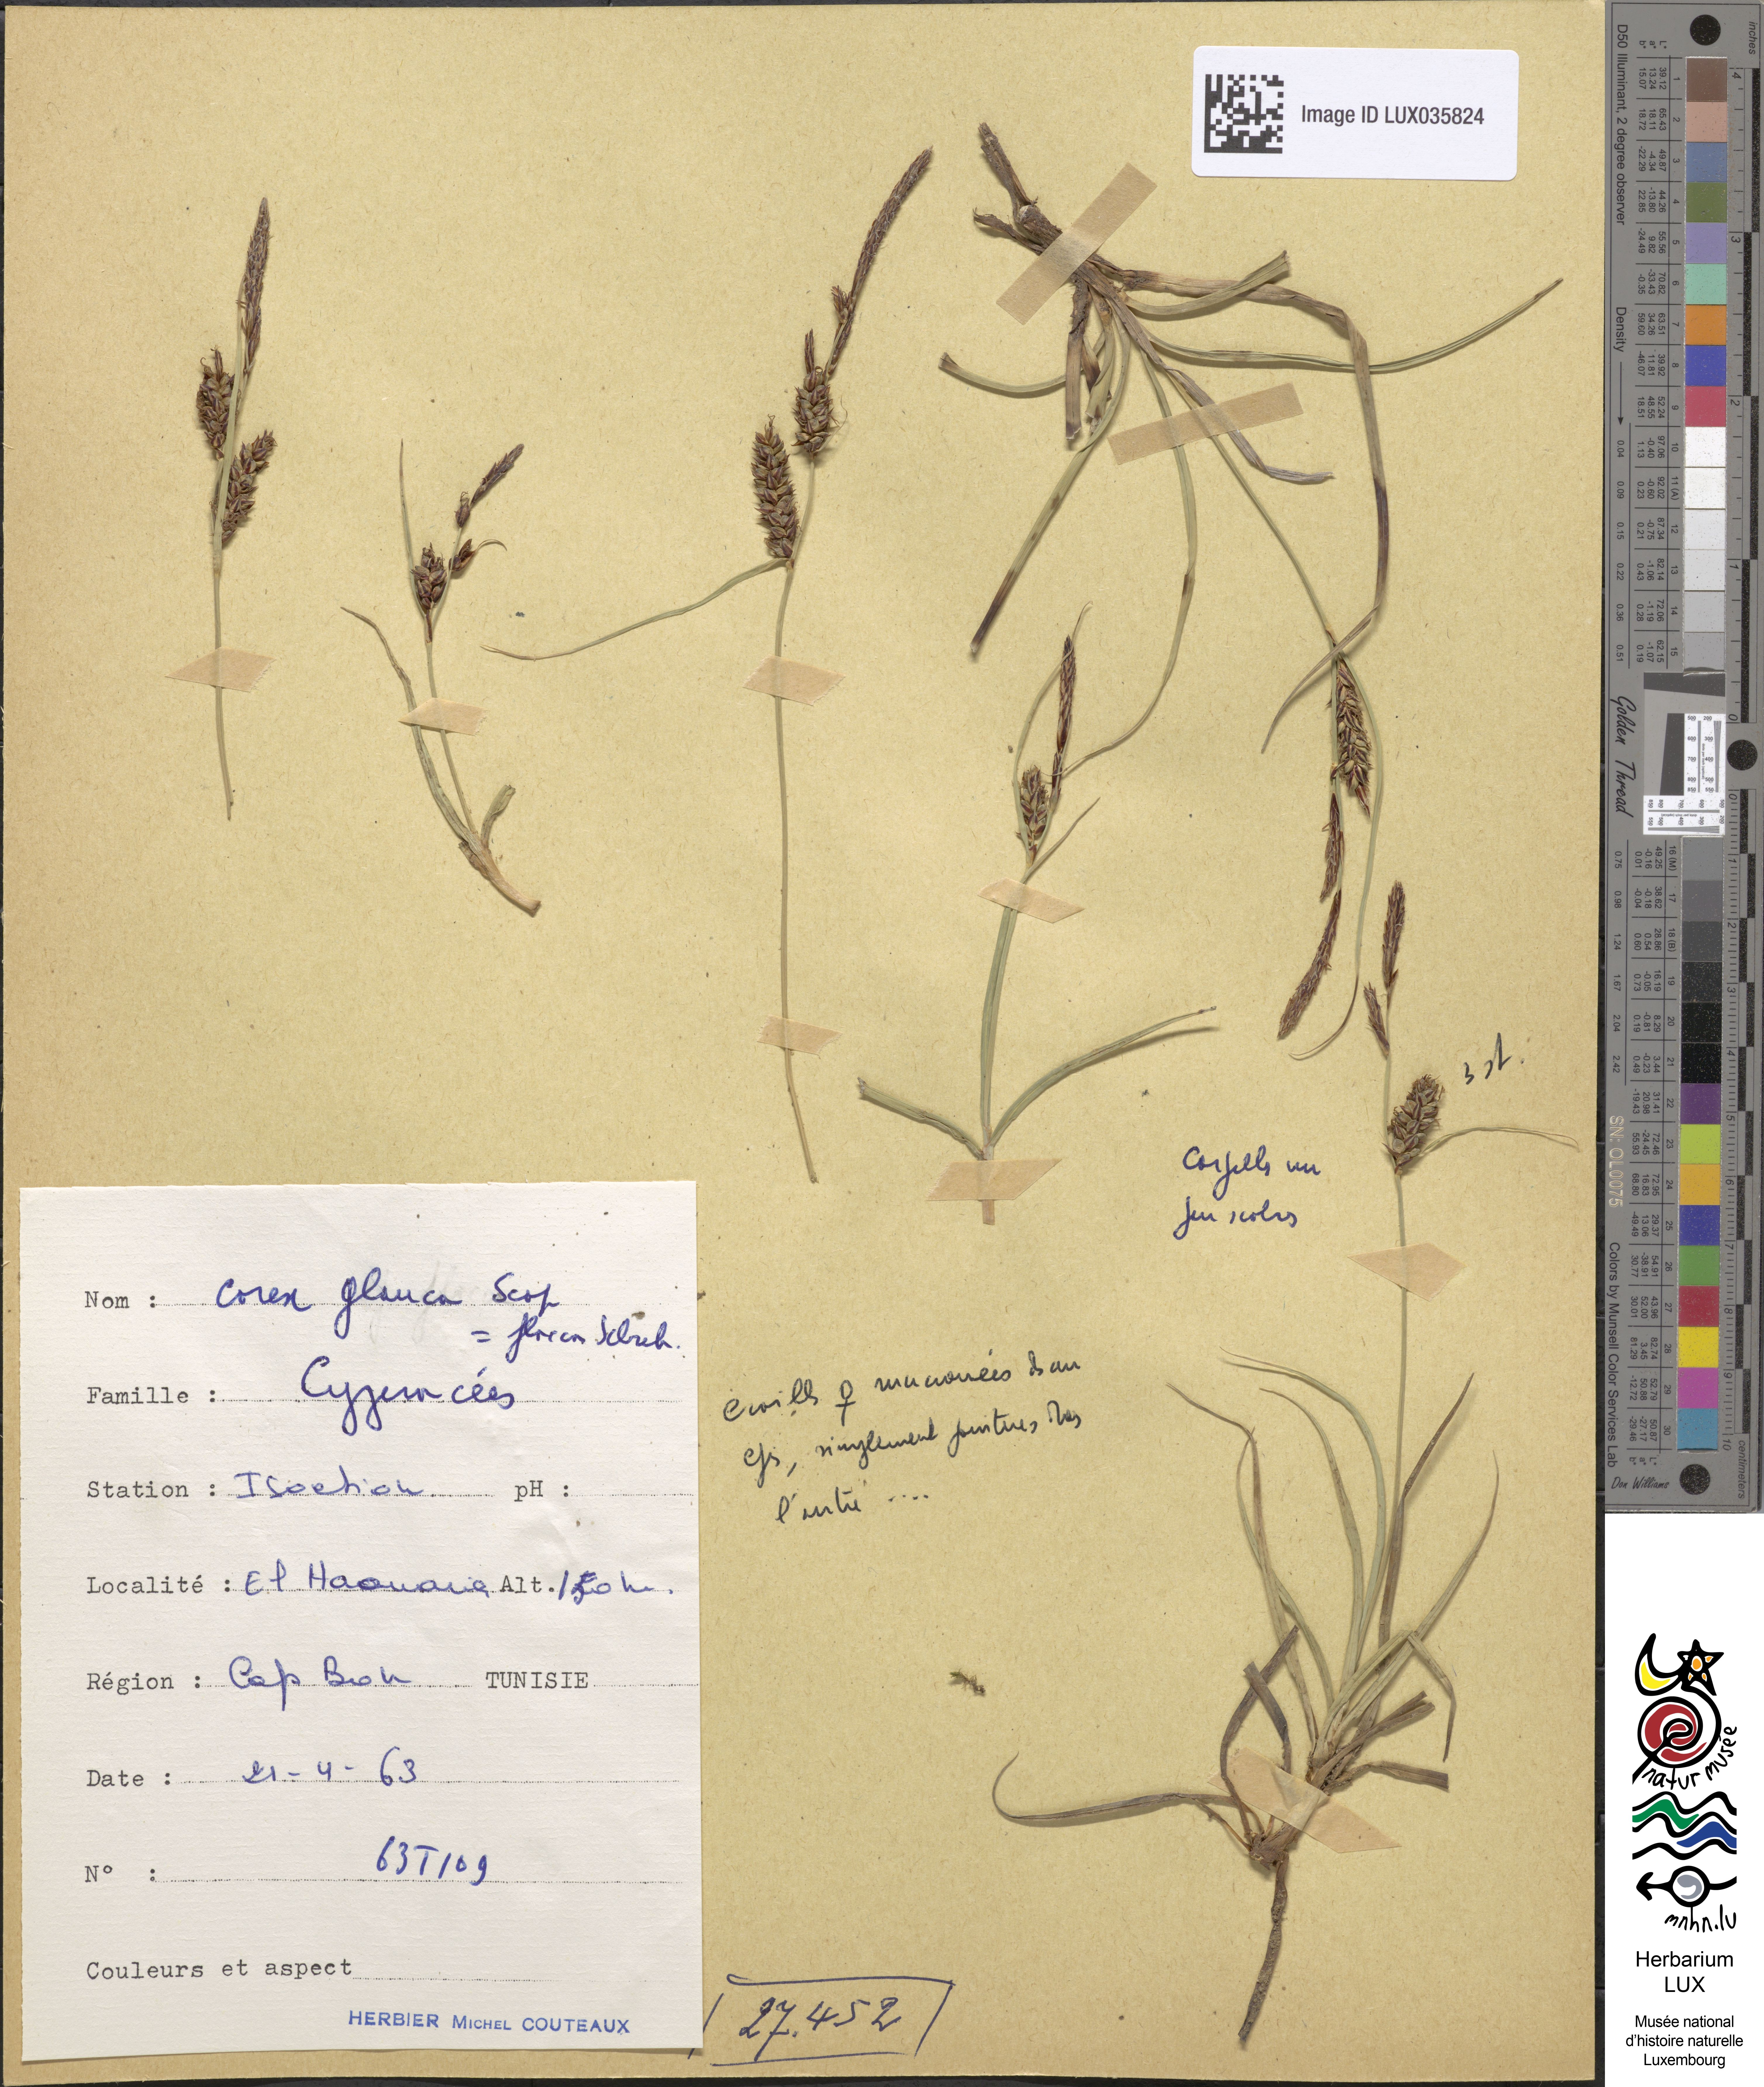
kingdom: Plantae
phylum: Tracheophyta
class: Liliopsida
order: Poales
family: Cyperaceae
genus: Carex
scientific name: Carex flacca
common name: Glaucous sedge
